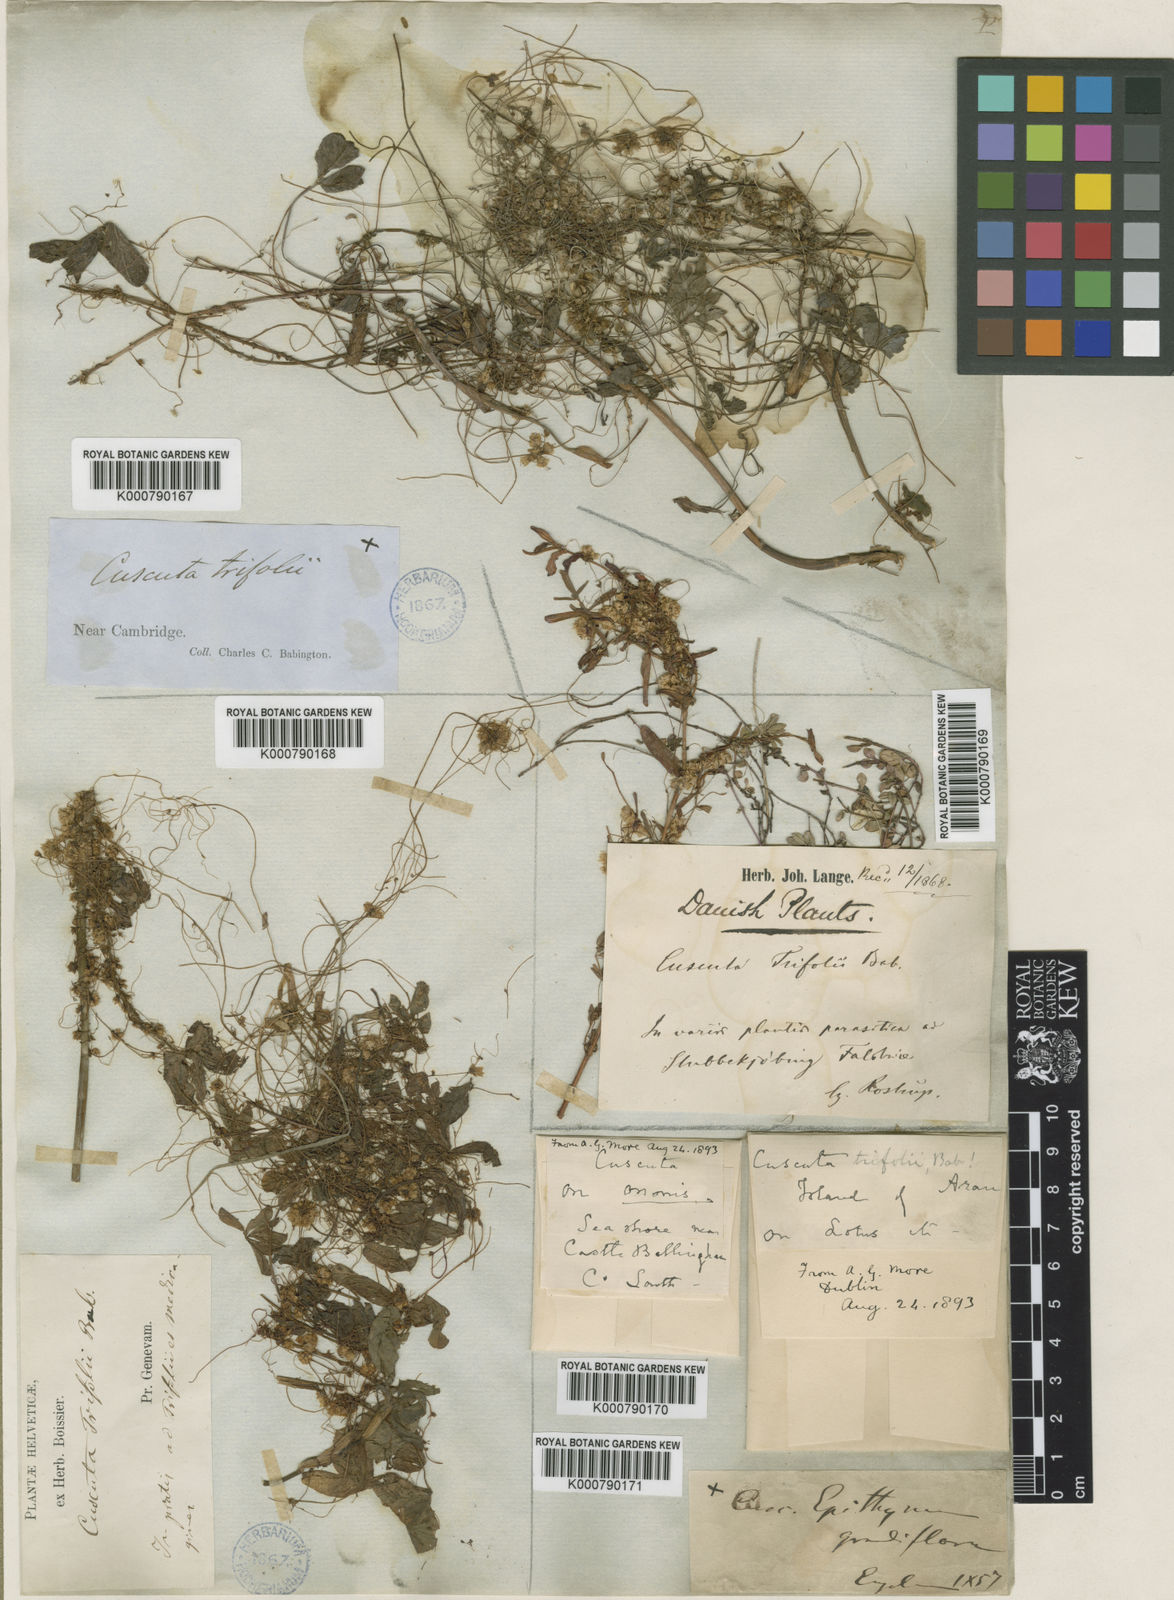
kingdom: Plantae
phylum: Tracheophyta
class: Magnoliopsida
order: Solanales
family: Convolvulaceae
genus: Cuscuta
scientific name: Cuscuta epithymum
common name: Clover dodder
